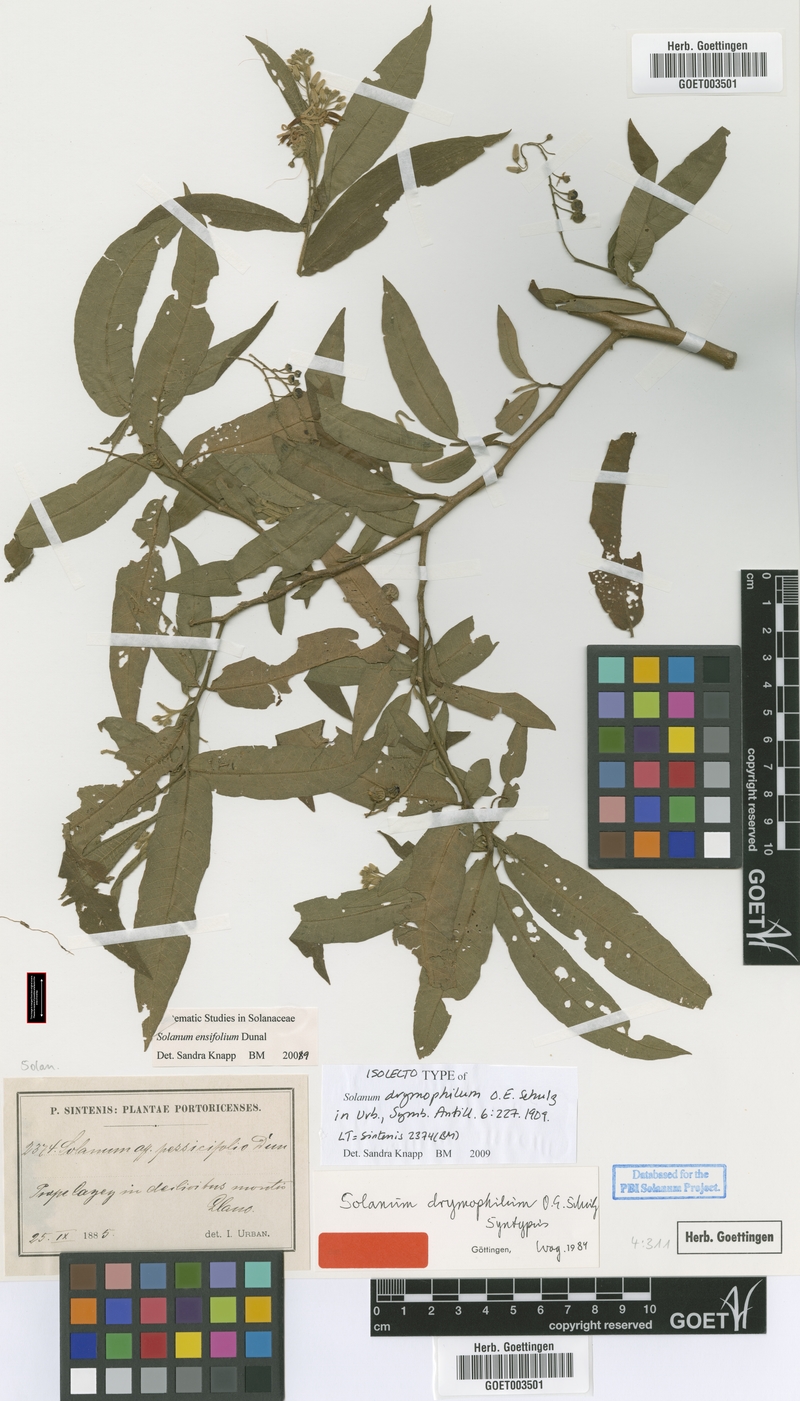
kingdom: Plantae
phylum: Tracheophyta
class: Magnoliopsida
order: Solanales
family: Solanaceae
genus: Solanum
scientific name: Solanum ensifolium
